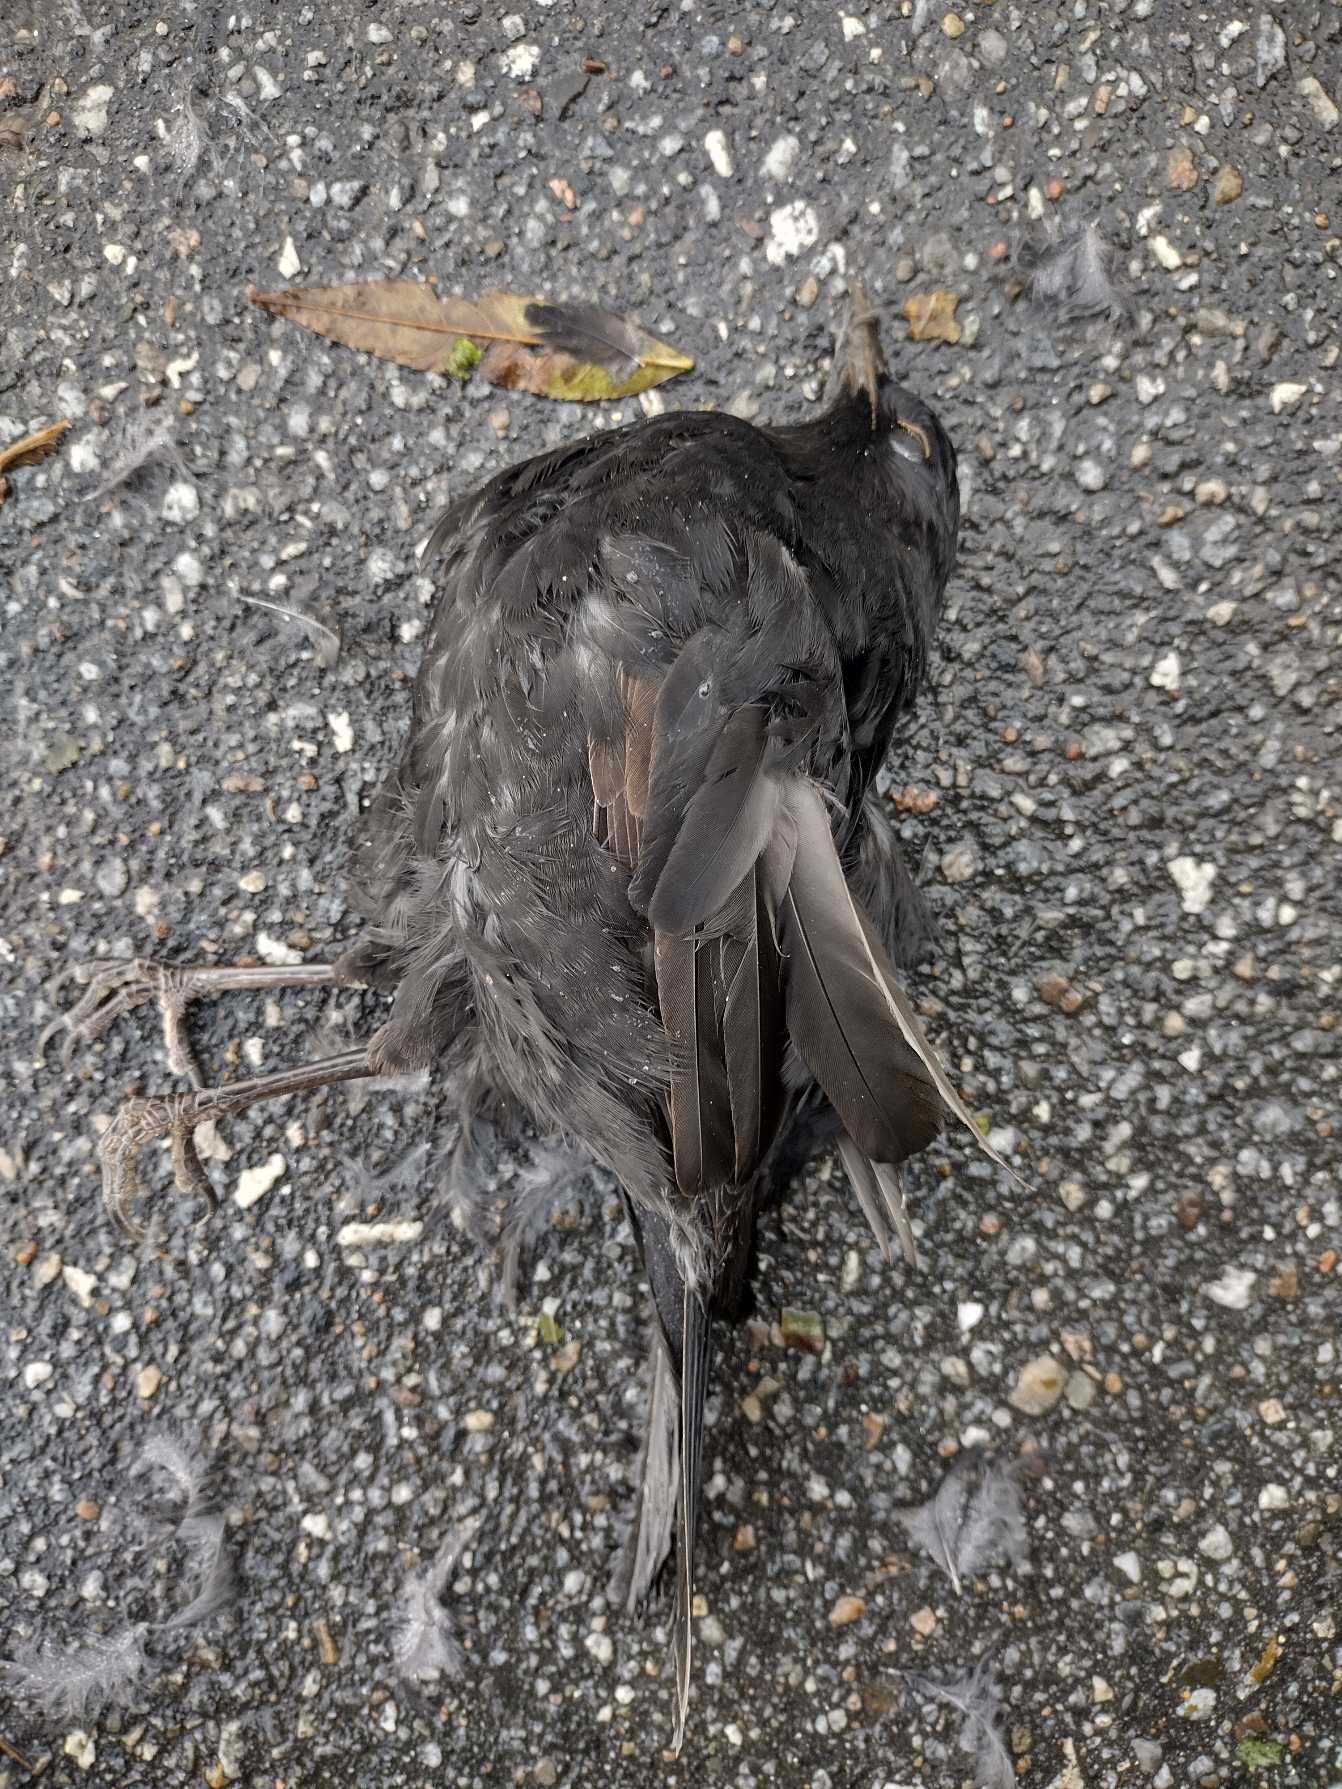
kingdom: Animalia
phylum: Chordata
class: Aves
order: Passeriformes
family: Turdidae
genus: Turdus
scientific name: Turdus merula
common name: Solsort
